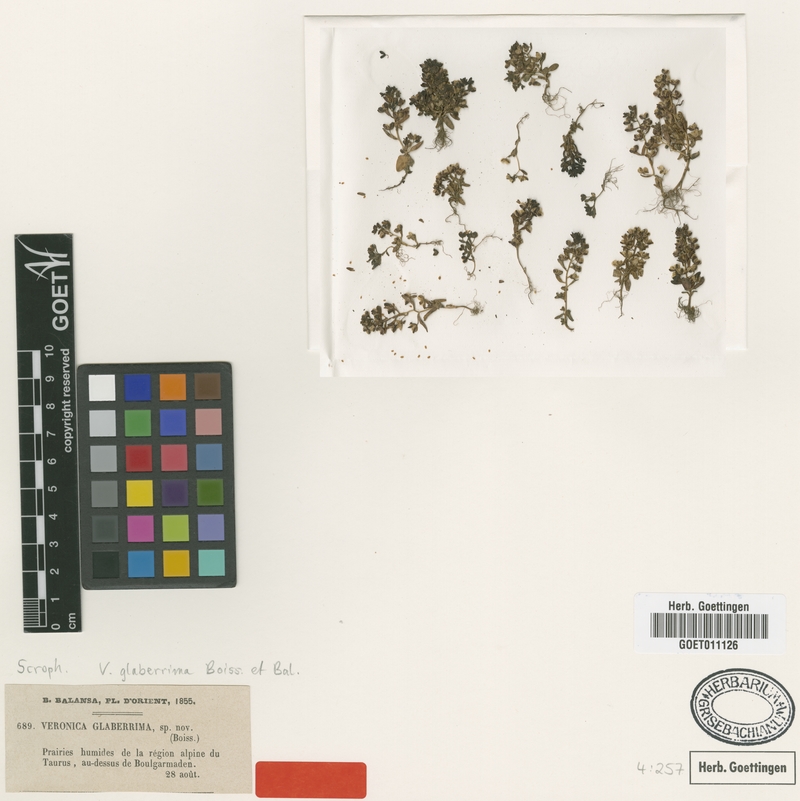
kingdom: Plantae
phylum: Tracheophyta
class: Magnoliopsida
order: Lamiales
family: Plantaginaceae
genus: Veronica
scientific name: Veronica pusilla
